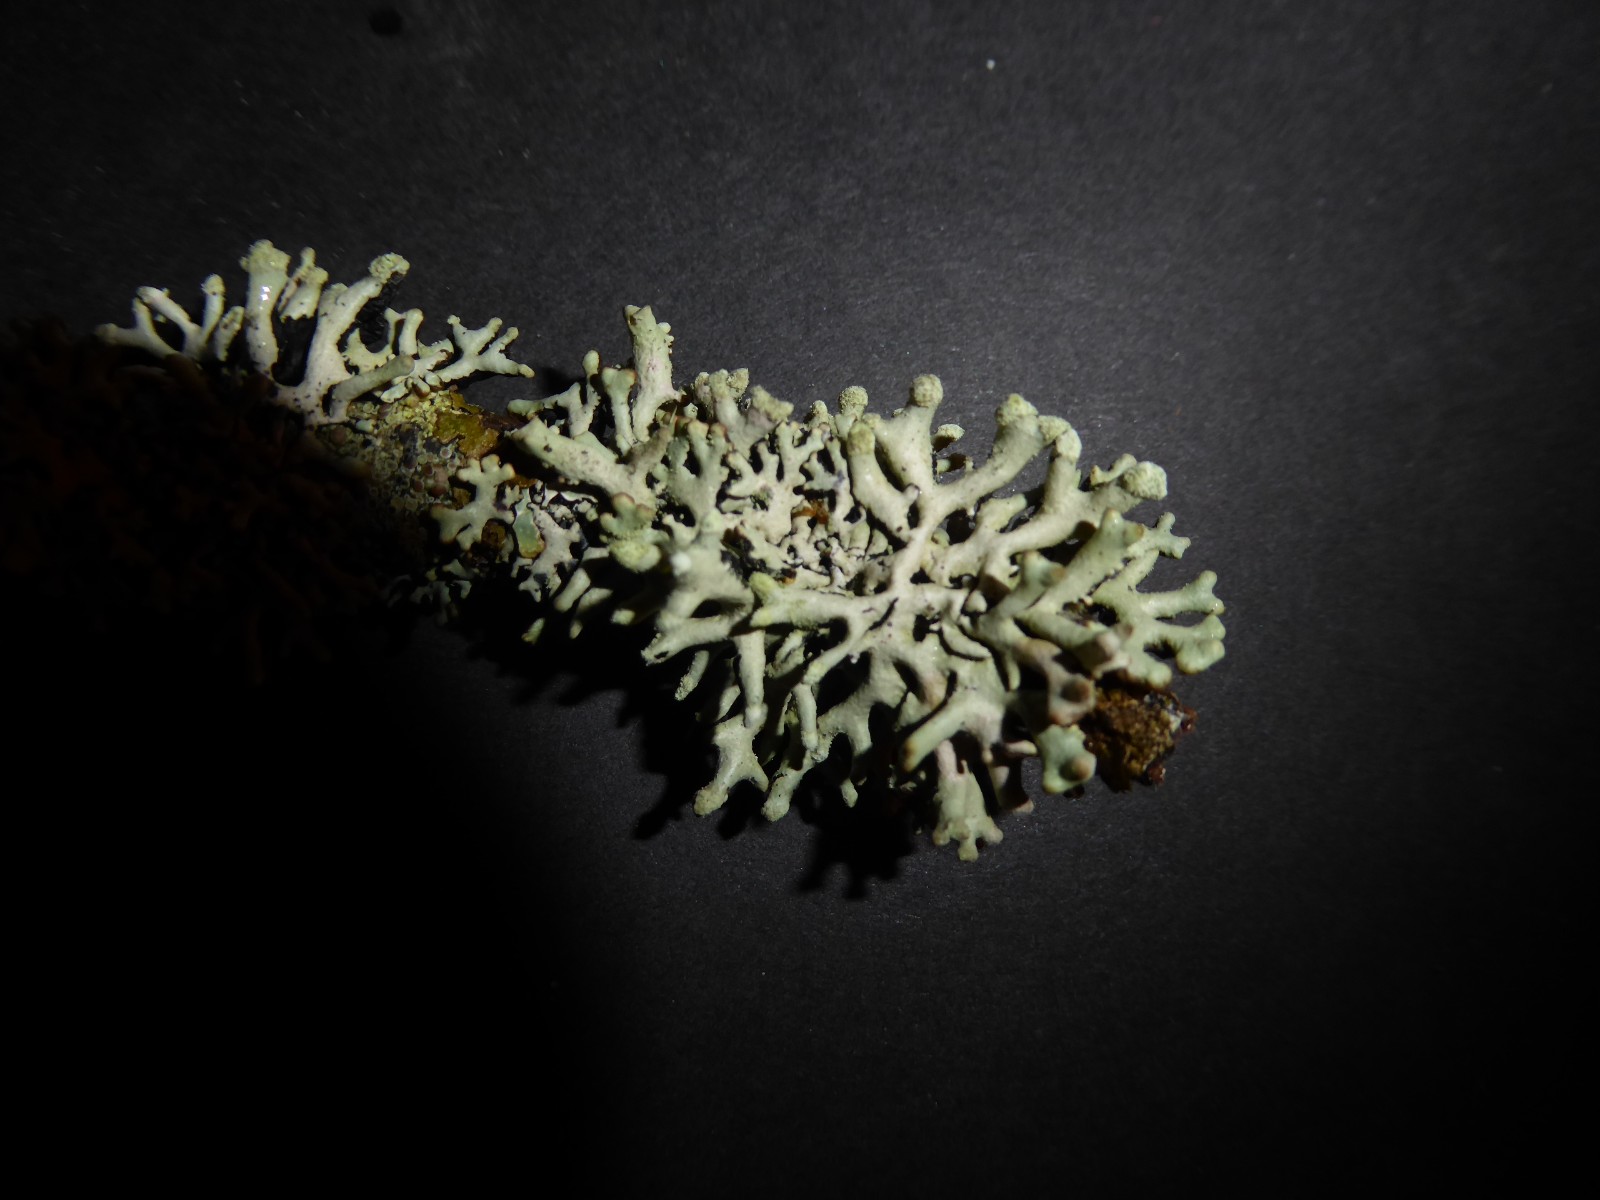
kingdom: Fungi
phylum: Ascomycota
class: Lecanoromycetes
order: Lecanorales
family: Parmeliaceae
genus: Hypogymnia
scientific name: Hypogymnia tubulosa
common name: finger-kvistlav
